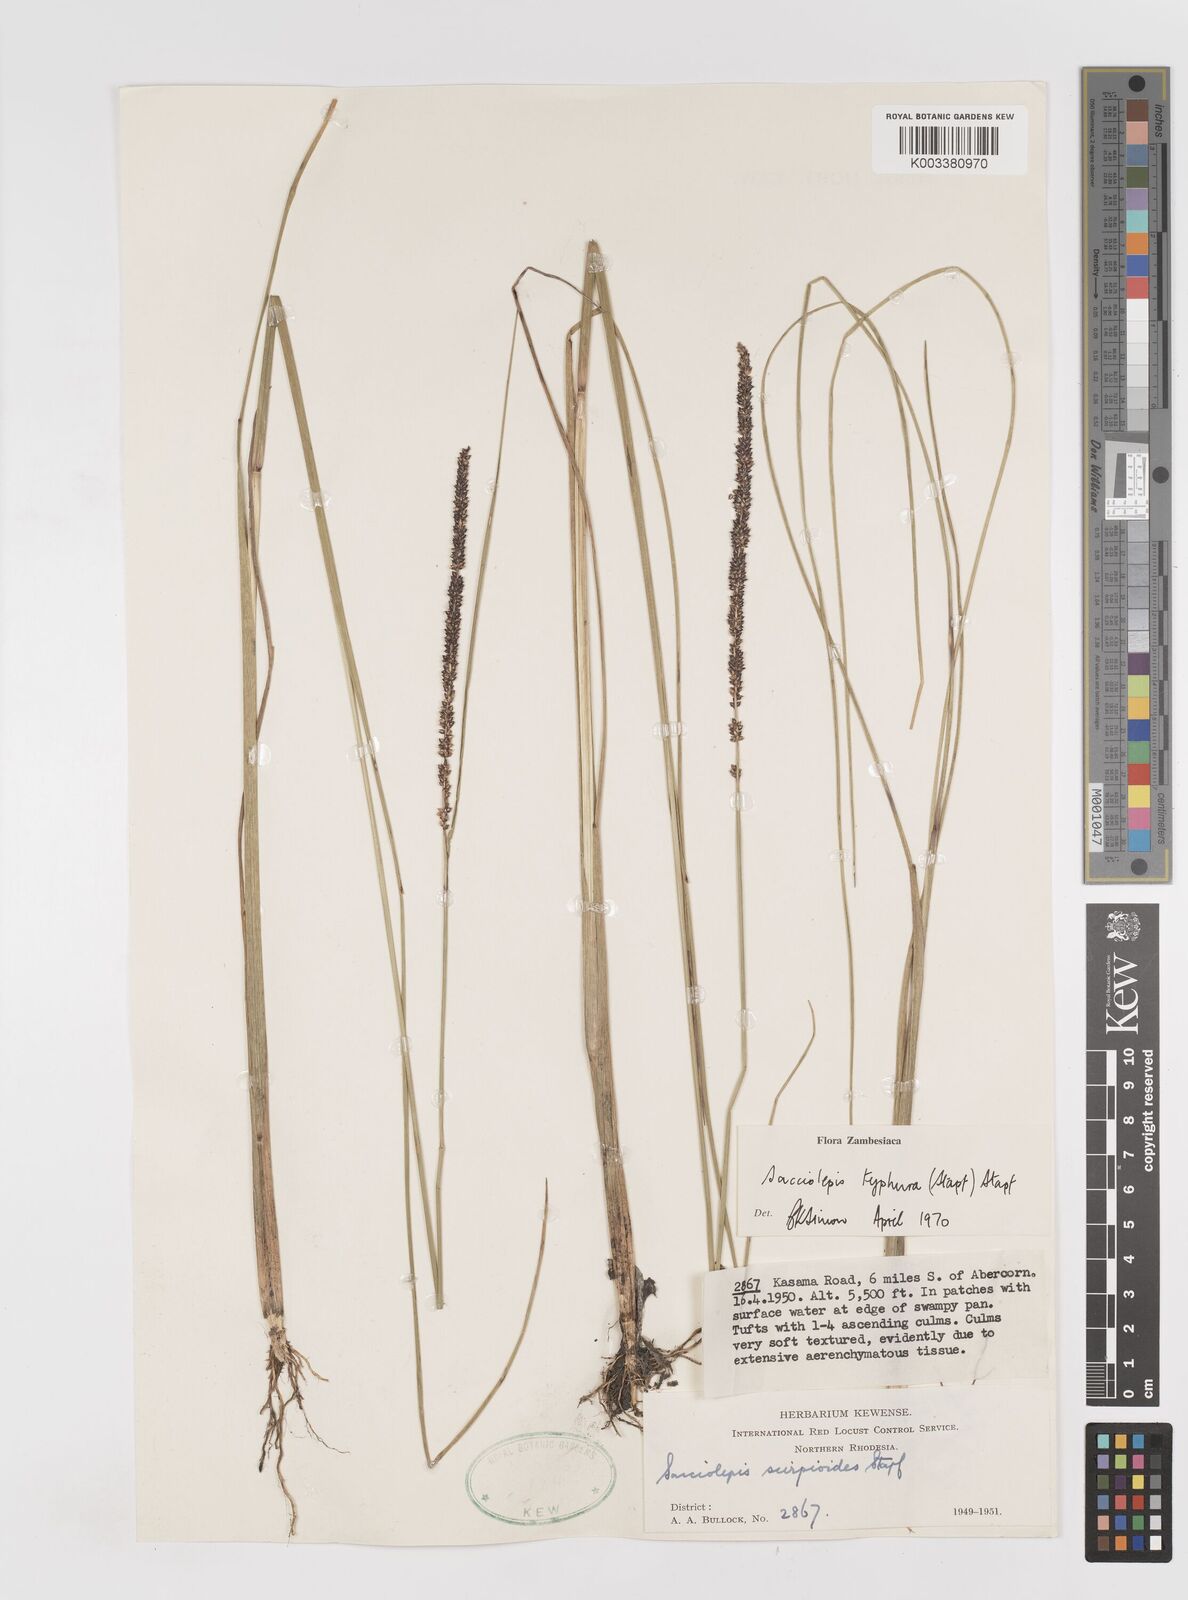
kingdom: Plantae
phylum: Tracheophyta
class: Liliopsida
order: Poales
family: Poaceae
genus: Sacciolepis
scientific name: Sacciolepis typhura
